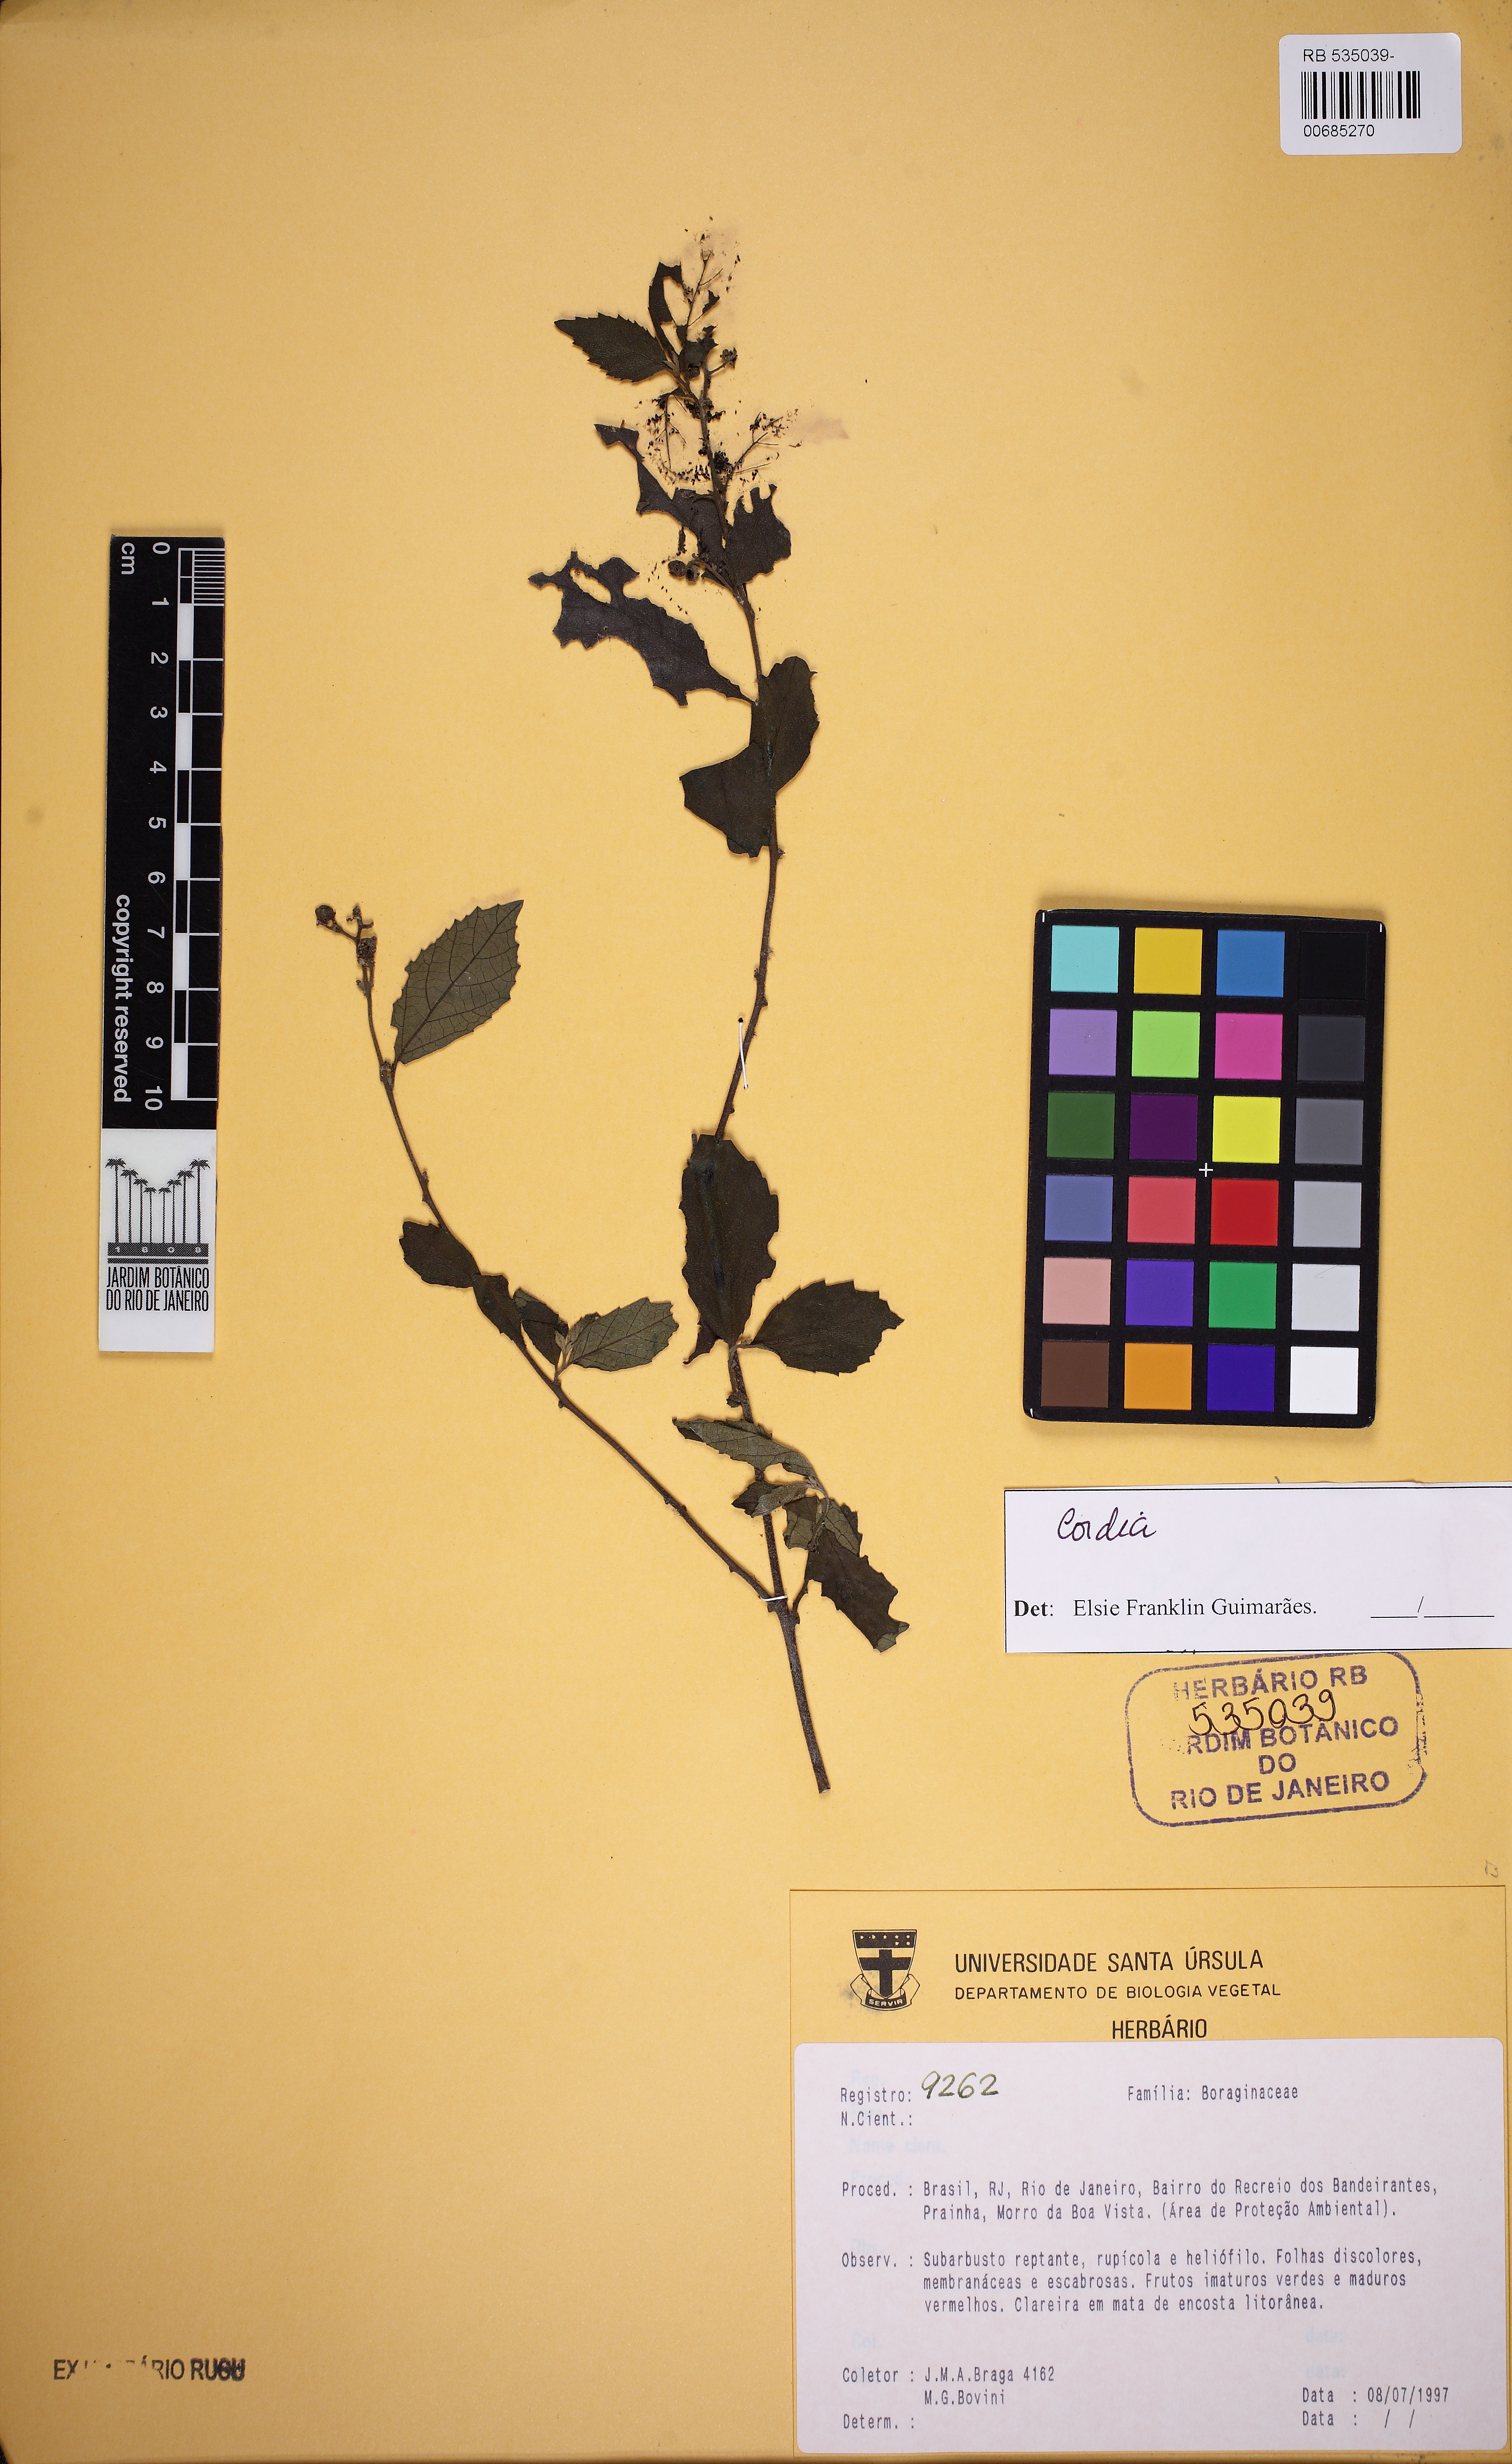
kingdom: Plantae
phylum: Tracheophyta
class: Magnoliopsida
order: Boraginales
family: Cordiaceae
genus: Cordia
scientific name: Cordia
